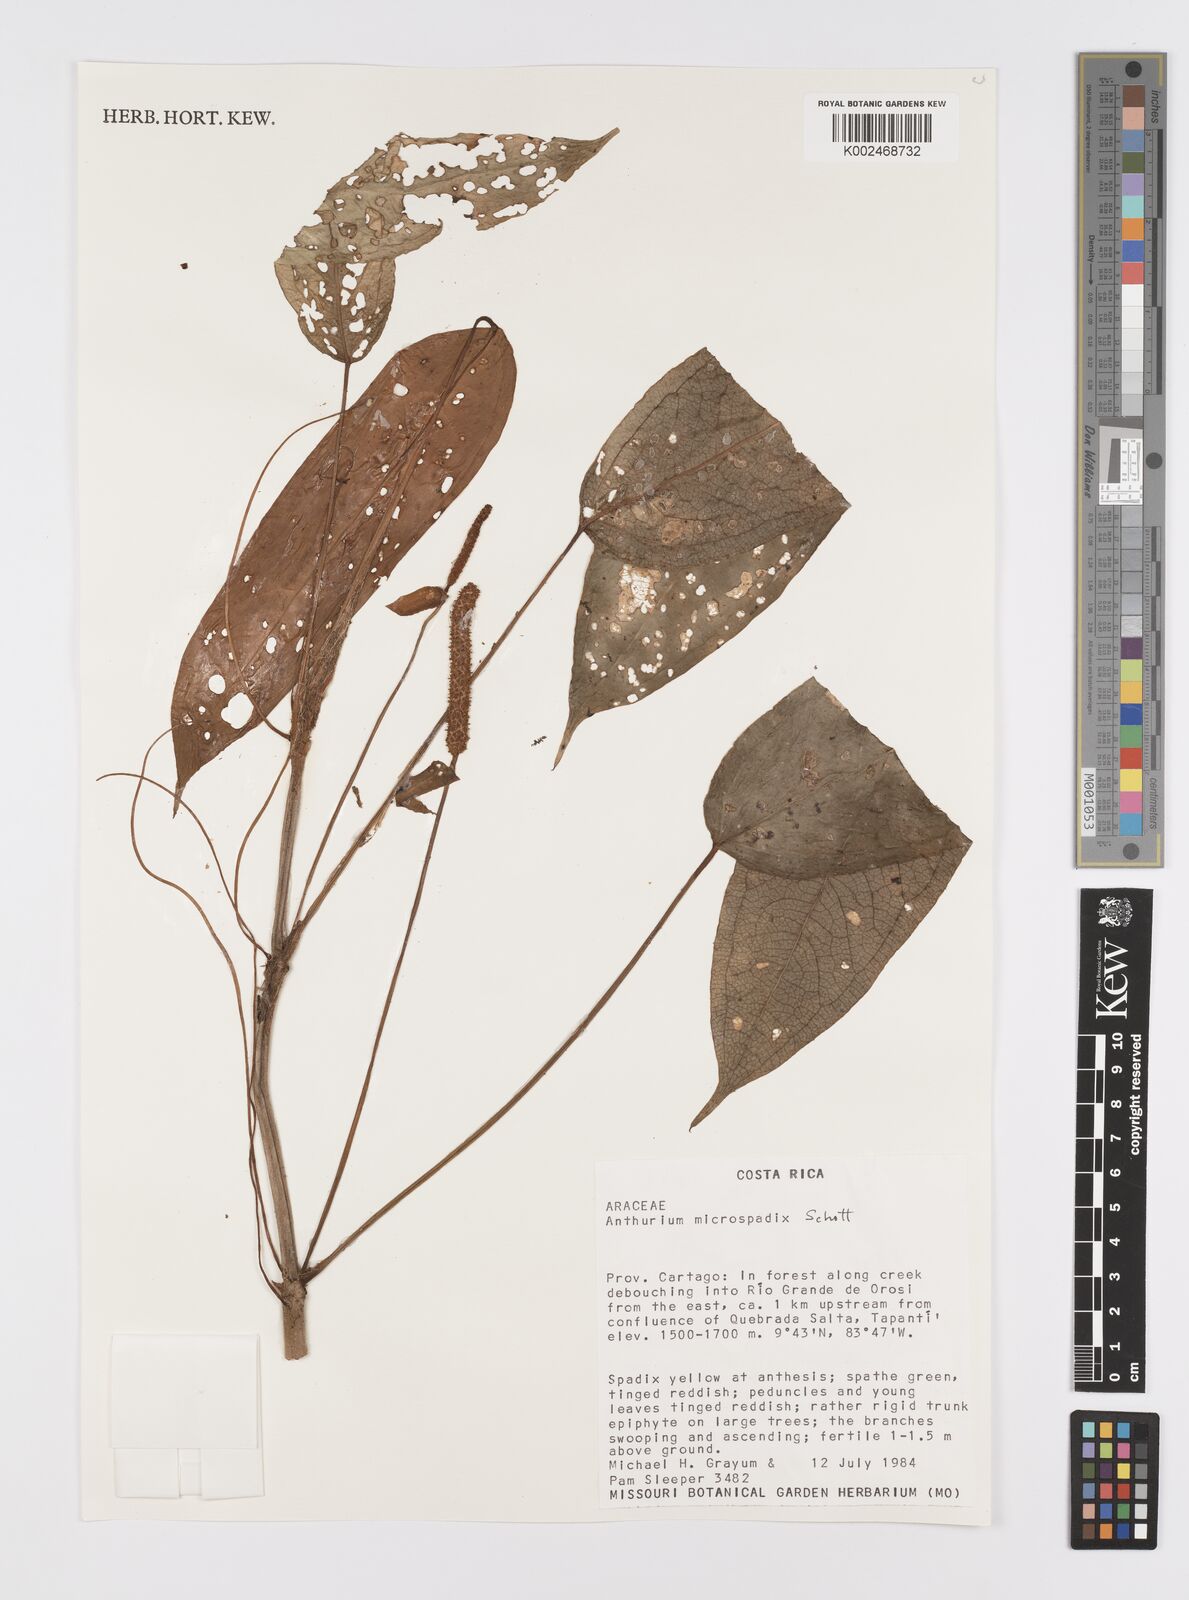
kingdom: Plantae
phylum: Tracheophyta
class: Liliopsida
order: Alismatales
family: Araceae
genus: Anthurium
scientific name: Anthurium microspadix
